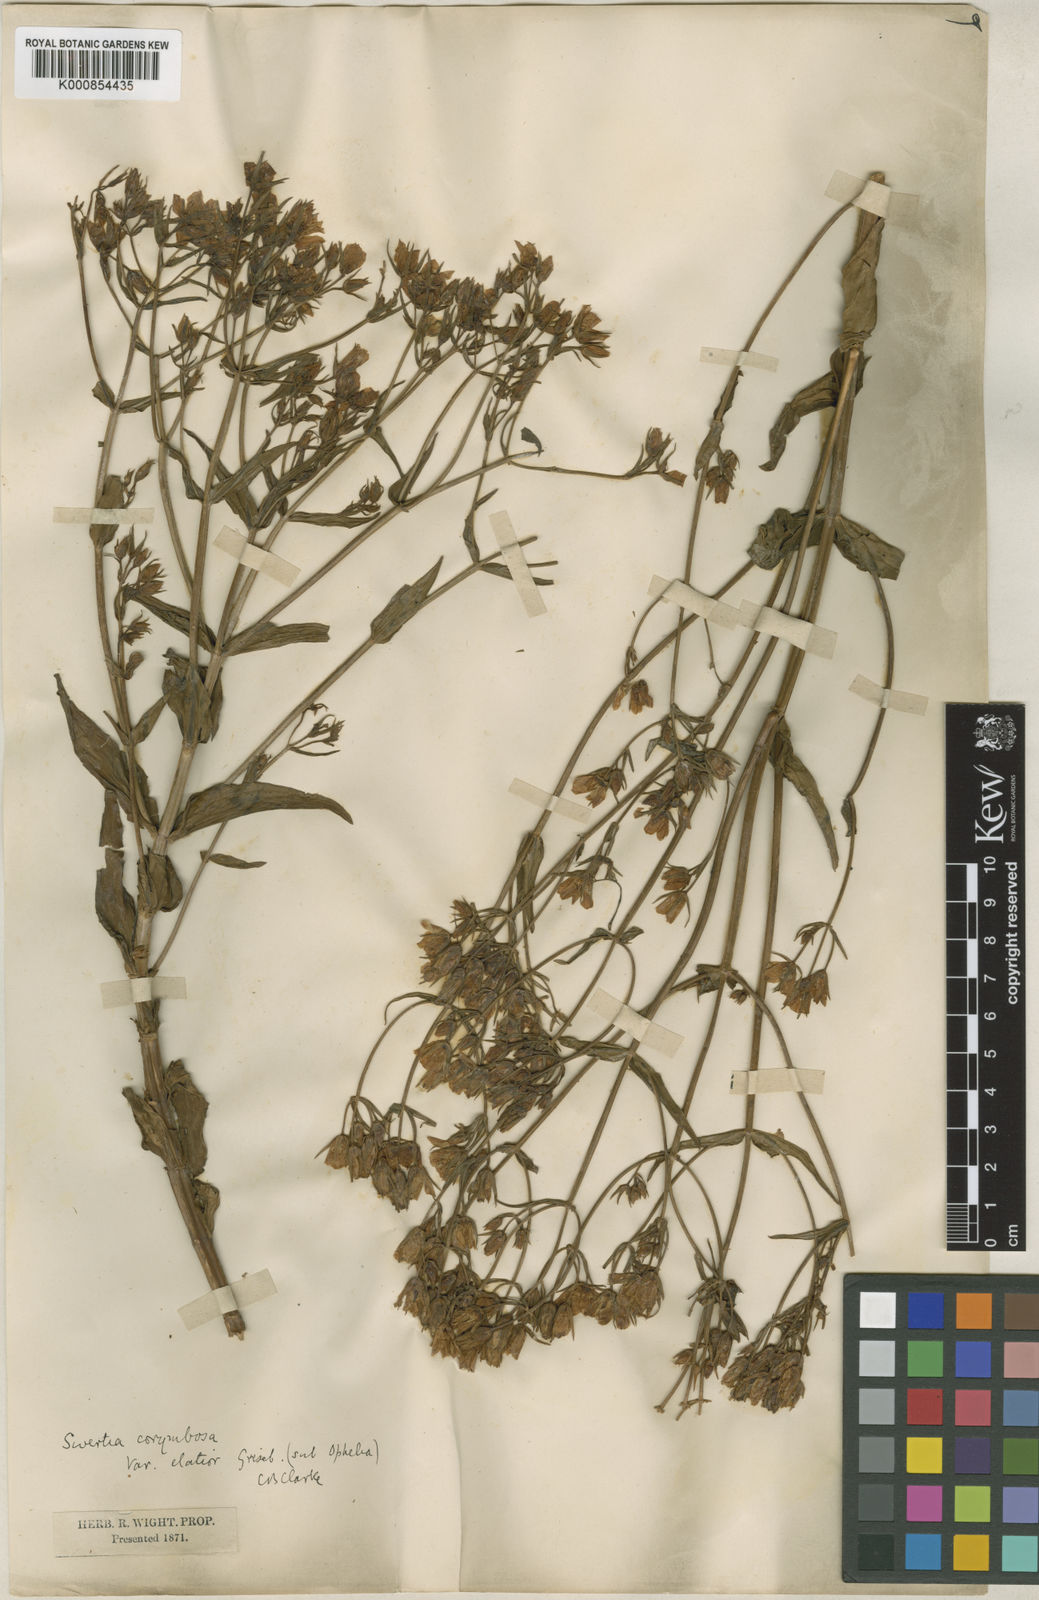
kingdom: Plantae
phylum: Tracheophyta
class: Magnoliopsida
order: Gentianales
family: Gentianaceae
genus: Swertia
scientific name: Swertia
